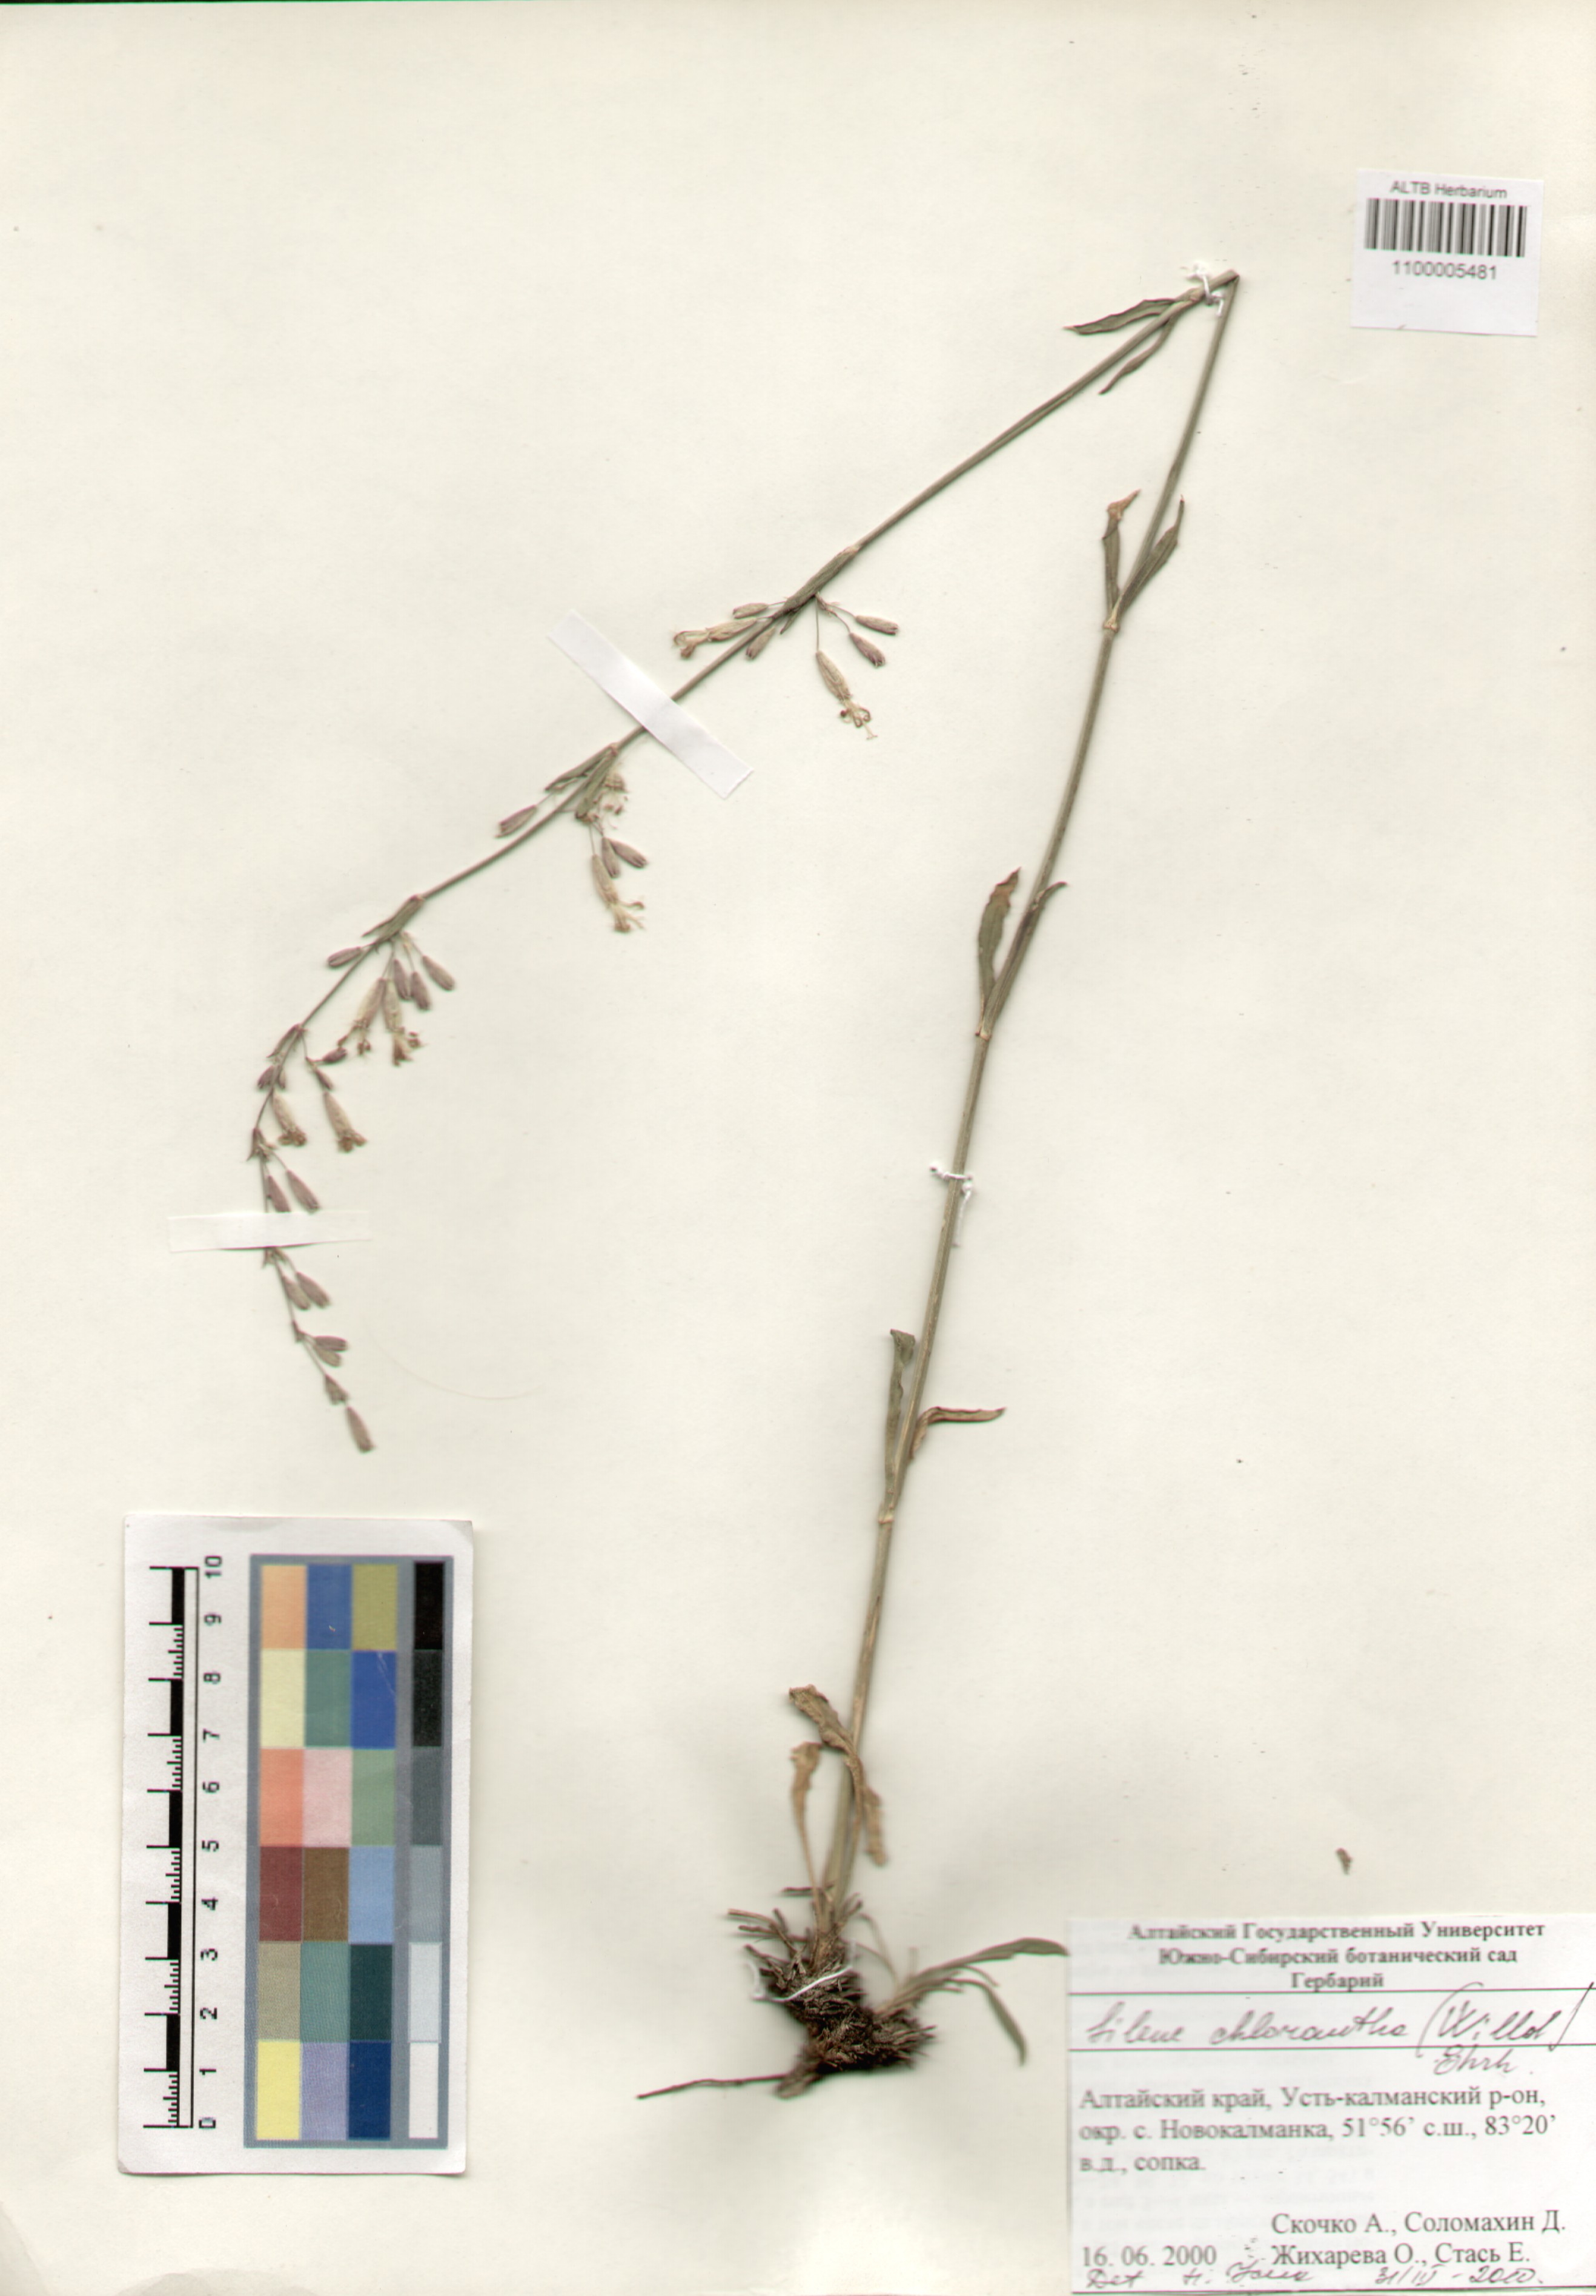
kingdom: Plantae
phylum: Tracheophyta
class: Magnoliopsida
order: Caryophyllales
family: Caryophyllaceae
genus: Silene
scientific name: Silene chlorantha
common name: Yellowgreen catchfly
